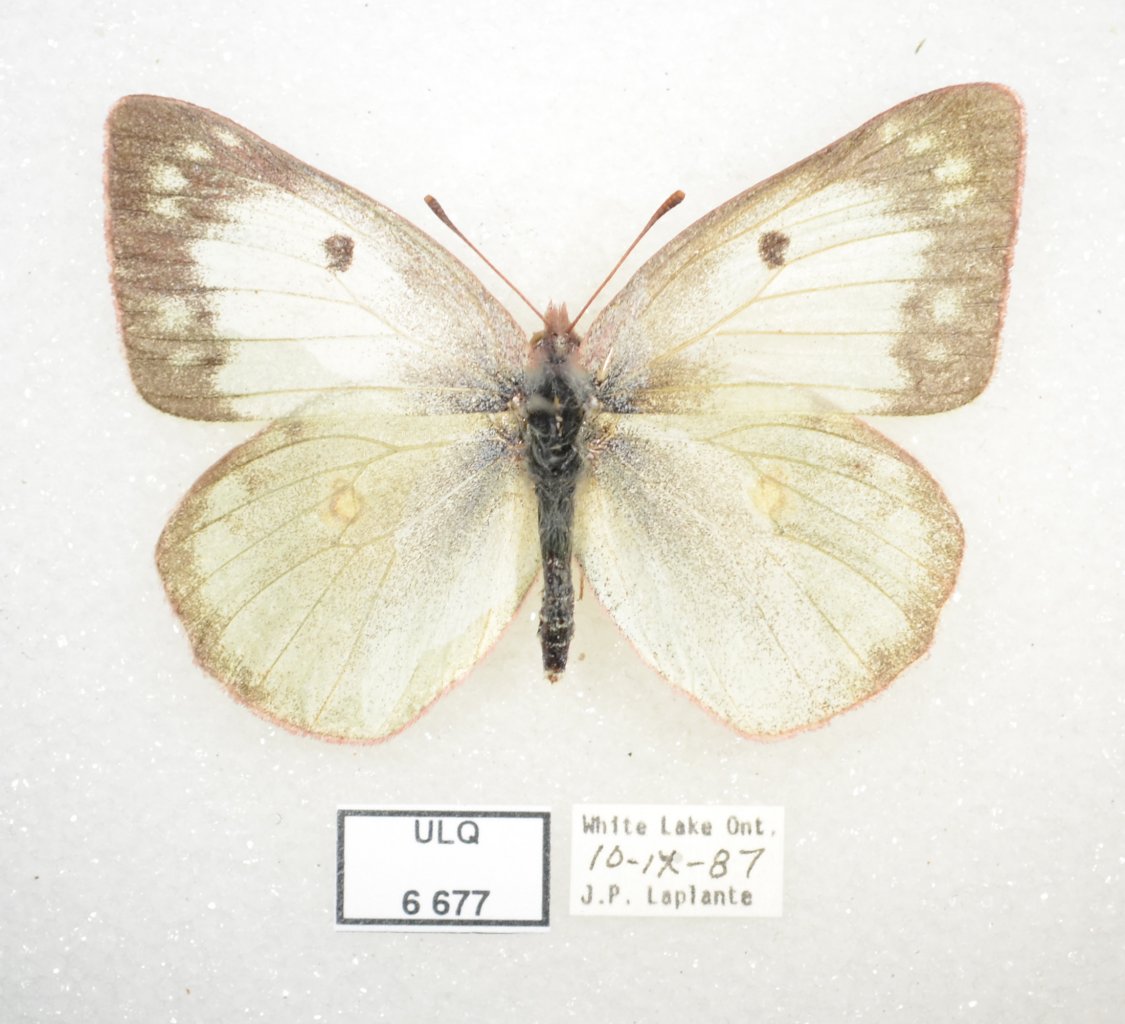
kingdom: Animalia
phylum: Arthropoda
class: Insecta
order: Lepidoptera
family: Pieridae
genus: Colias
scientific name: Colias philodice
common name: Clouded Sulphur
